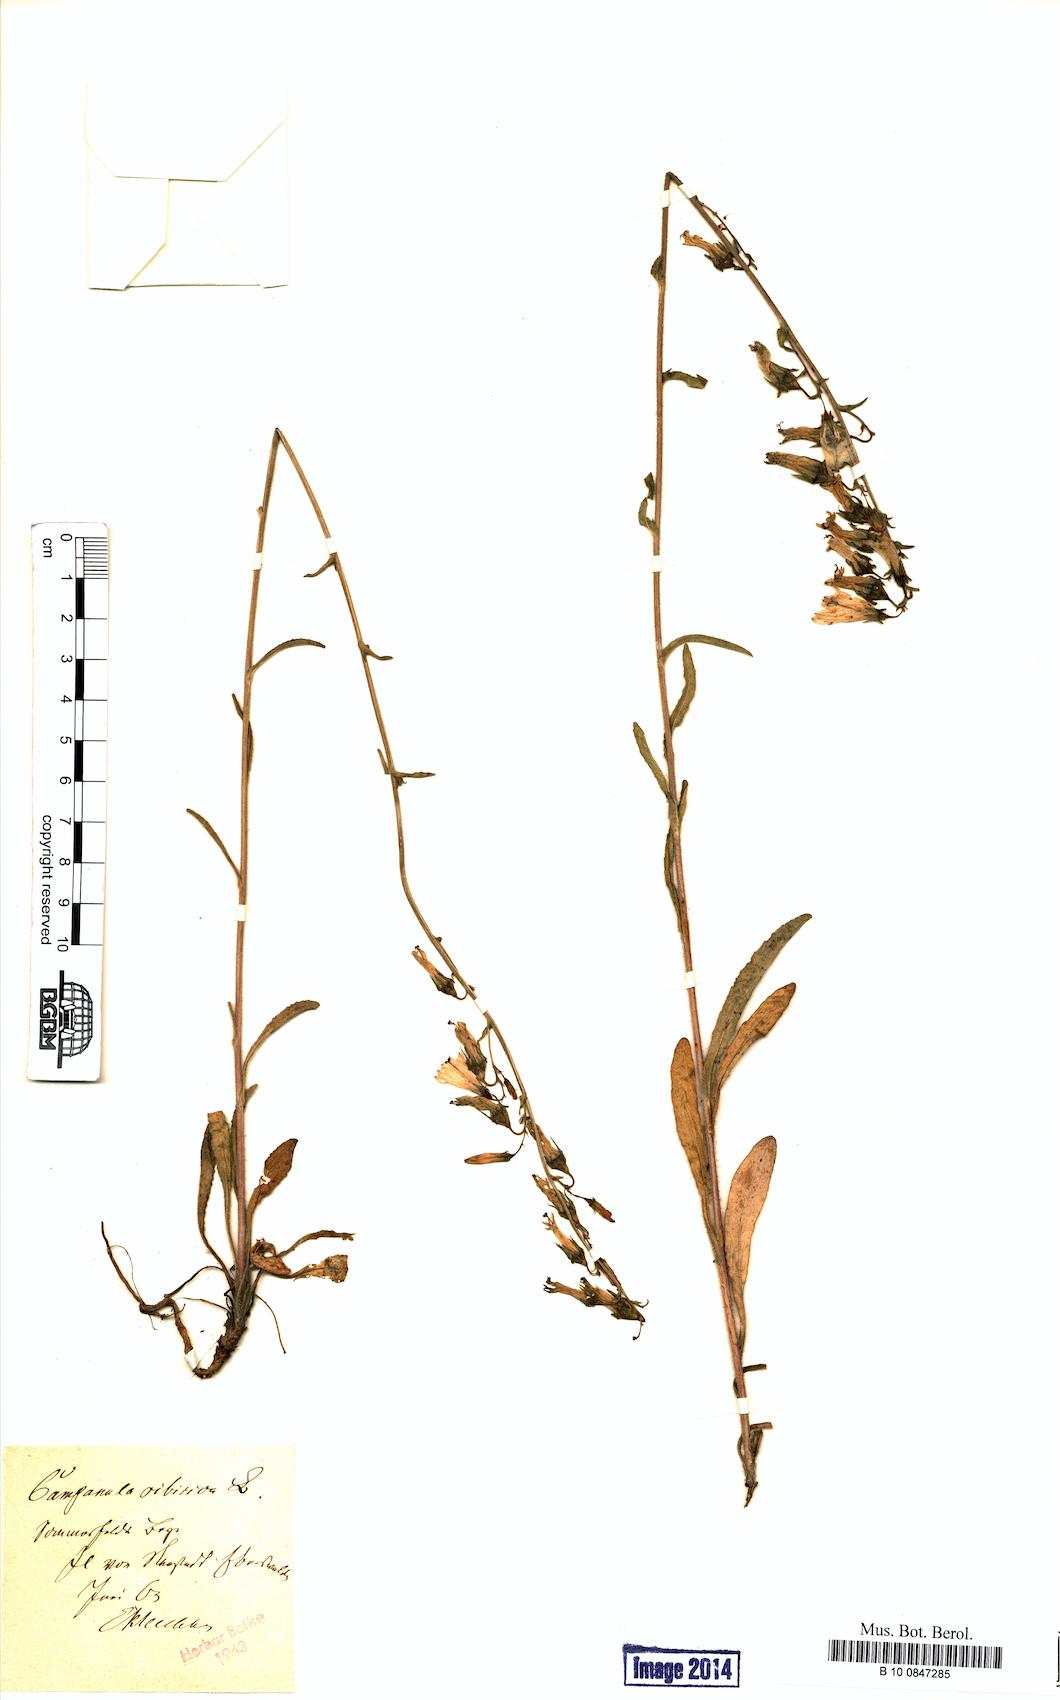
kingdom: Plantae
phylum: Tracheophyta
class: Magnoliopsida
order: Asterales
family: Campanulaceae
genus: Campanula
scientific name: Campanula sibirica
